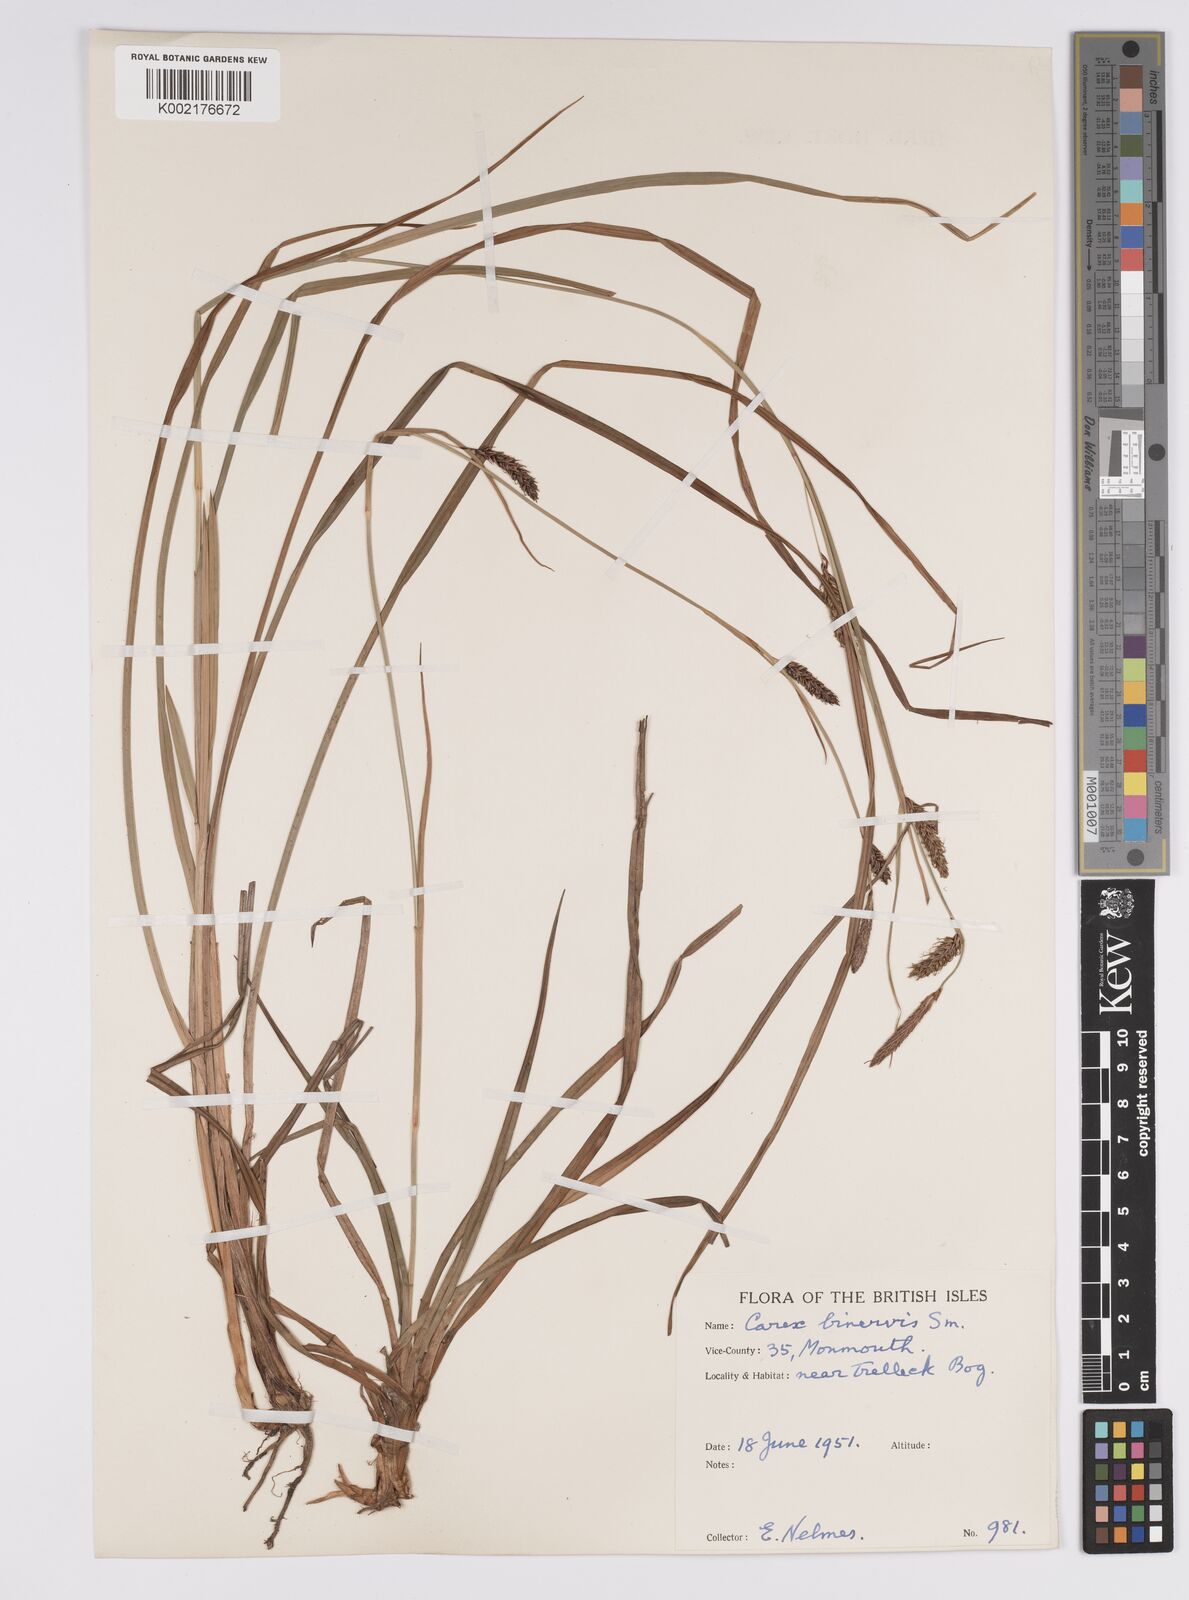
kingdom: Plantae
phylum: Tracheophyta
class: Liliopsida
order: Poales
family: Cyperaceae
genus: Carex
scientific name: Carex binervis
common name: Green-ribbed sedge
